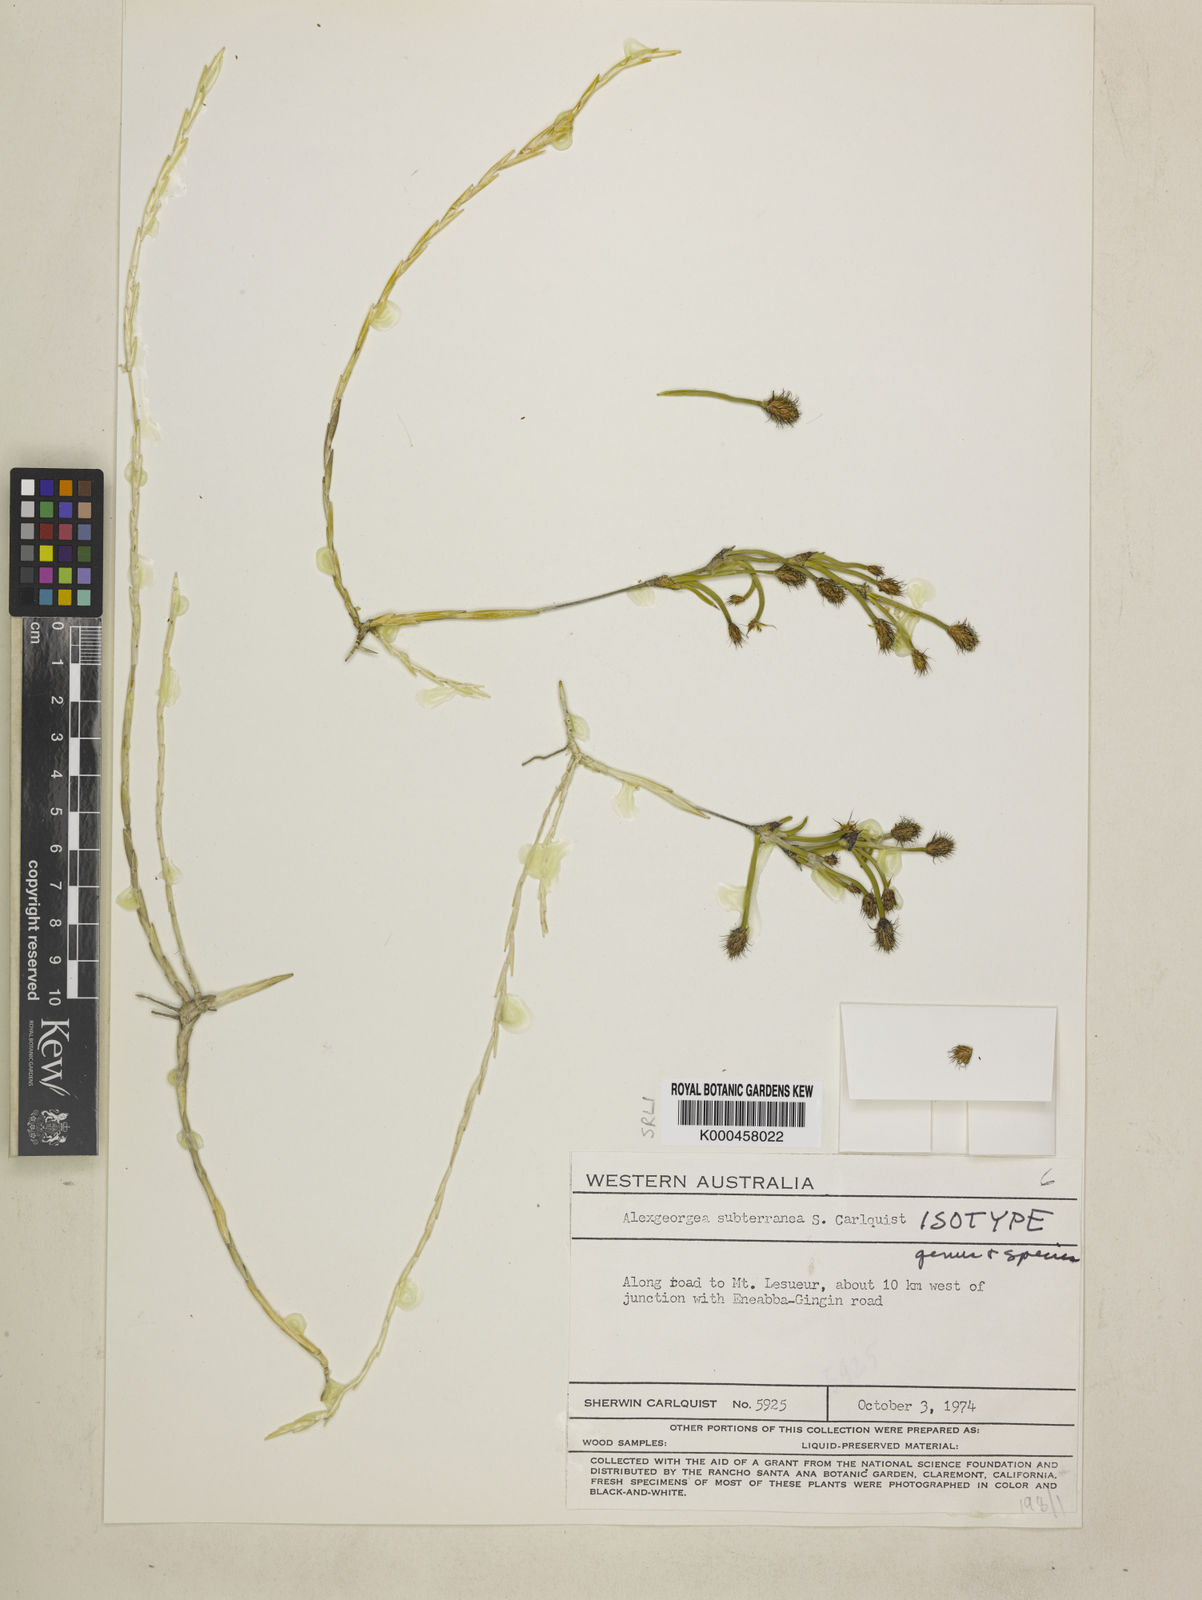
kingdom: Plantae
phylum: Tracheophyta
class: Liliopsida
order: Poales
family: Restionaceae
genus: Alexgeorgea
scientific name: Alexgeorgea subterranea
